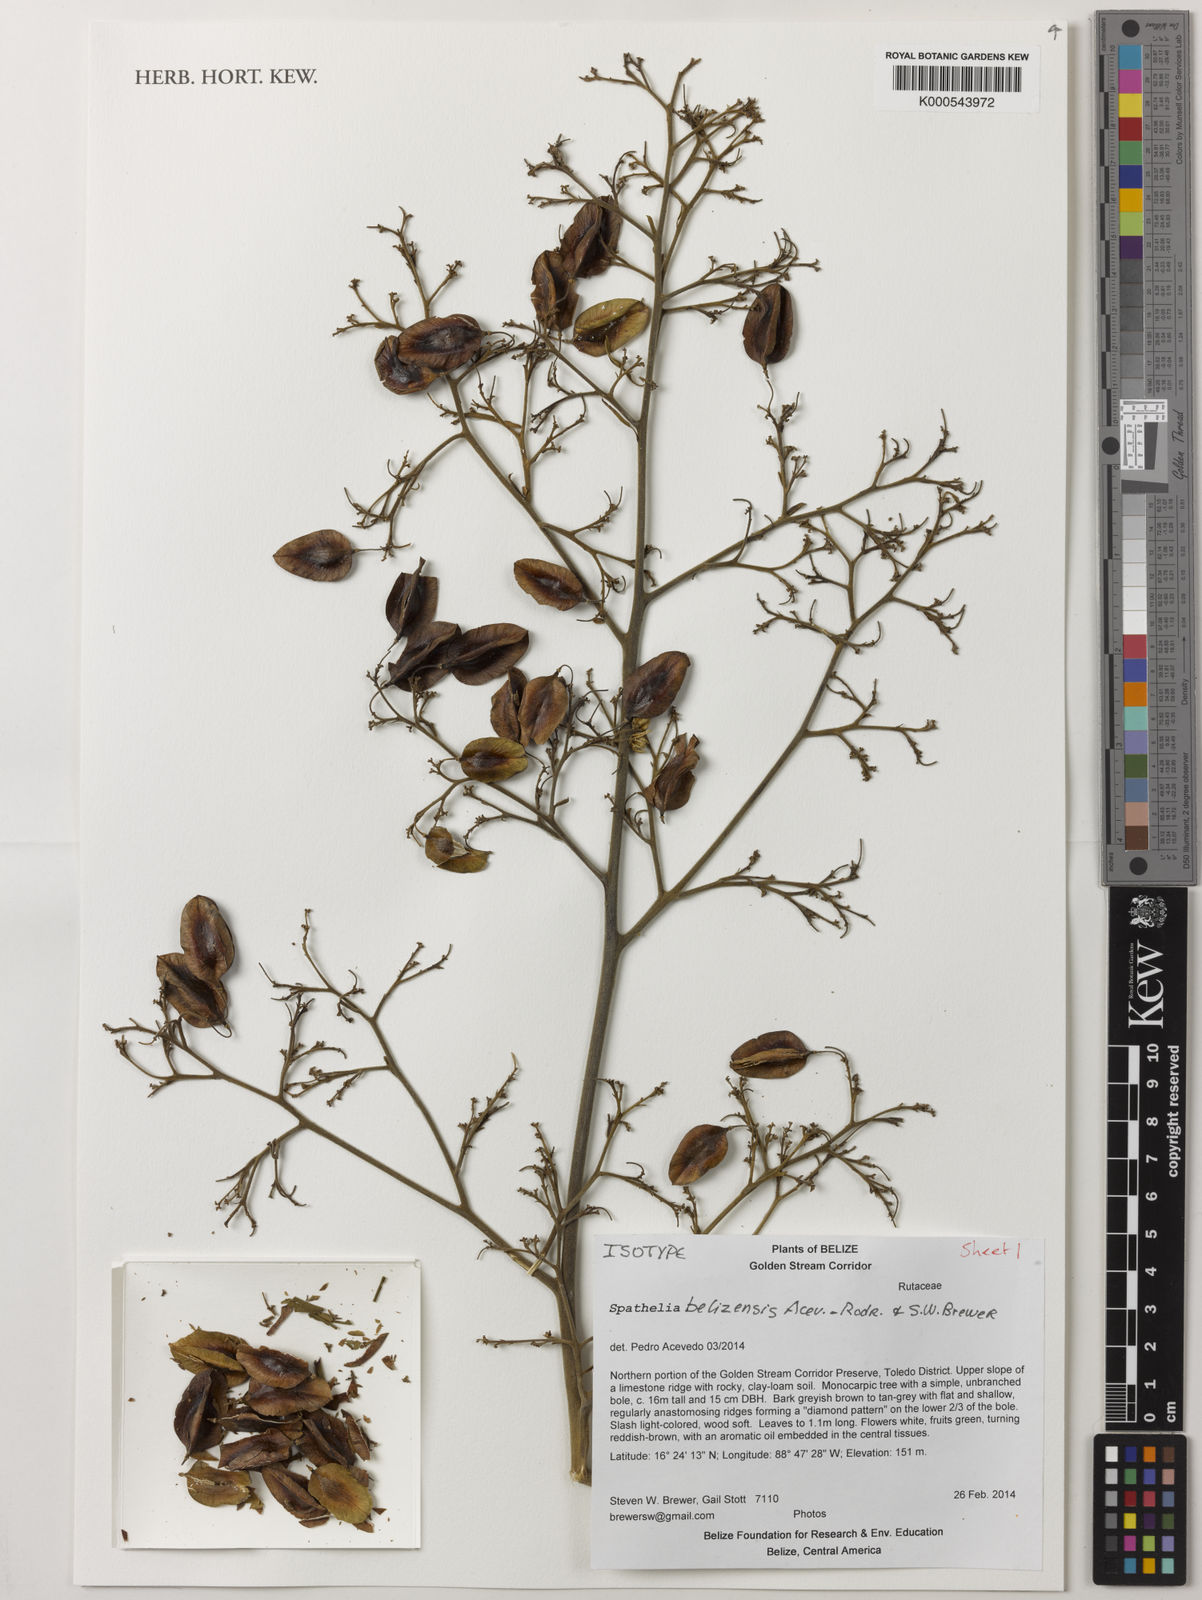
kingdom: Plantae
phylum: Tracheophyta
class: Magnoliopsida
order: Sapindales
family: Rutaceae
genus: Spathelia
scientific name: Spathelia belizensis
